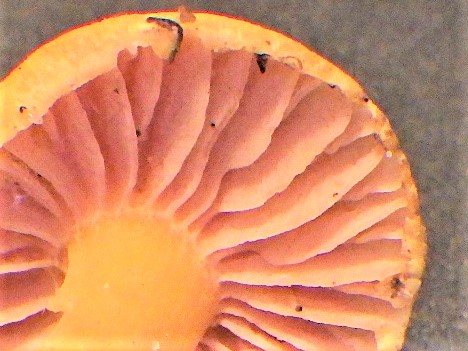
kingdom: Fungi
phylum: Basidiomycota
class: Agaricomycetes
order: Agaricales
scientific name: Agaricales
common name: champignonordenen
